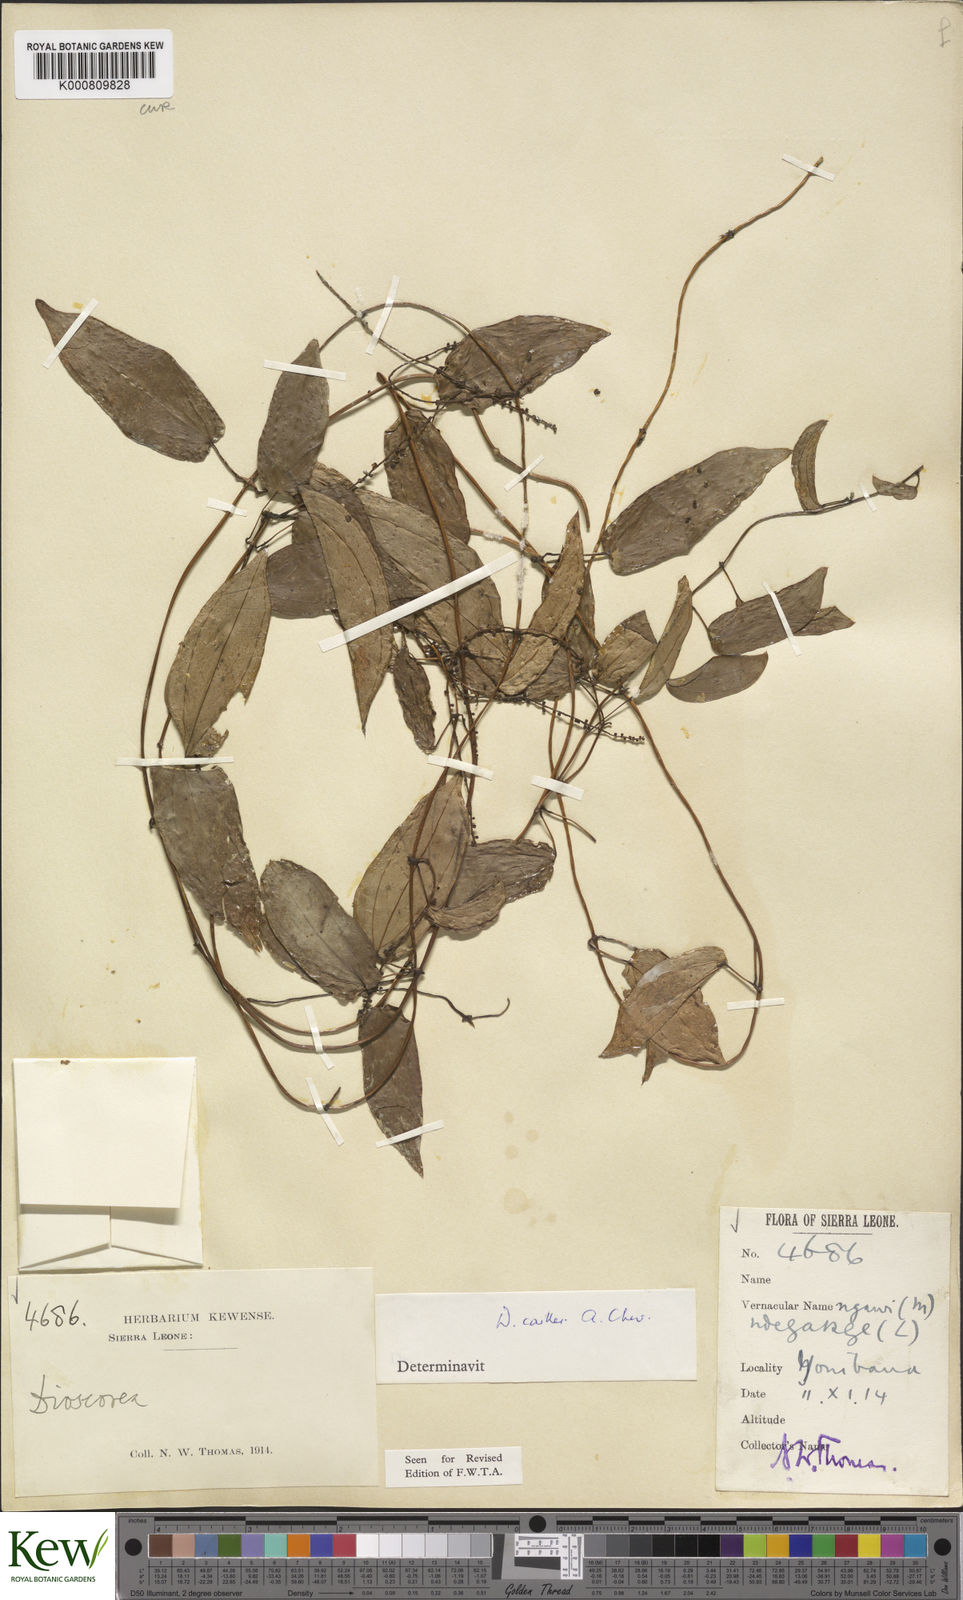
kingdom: Plantae
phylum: Tracheophyta
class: Liliopsida
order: Dioscoreales
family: Dioscoreaceae
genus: Dioscorea
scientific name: Dioscorea togoensis
